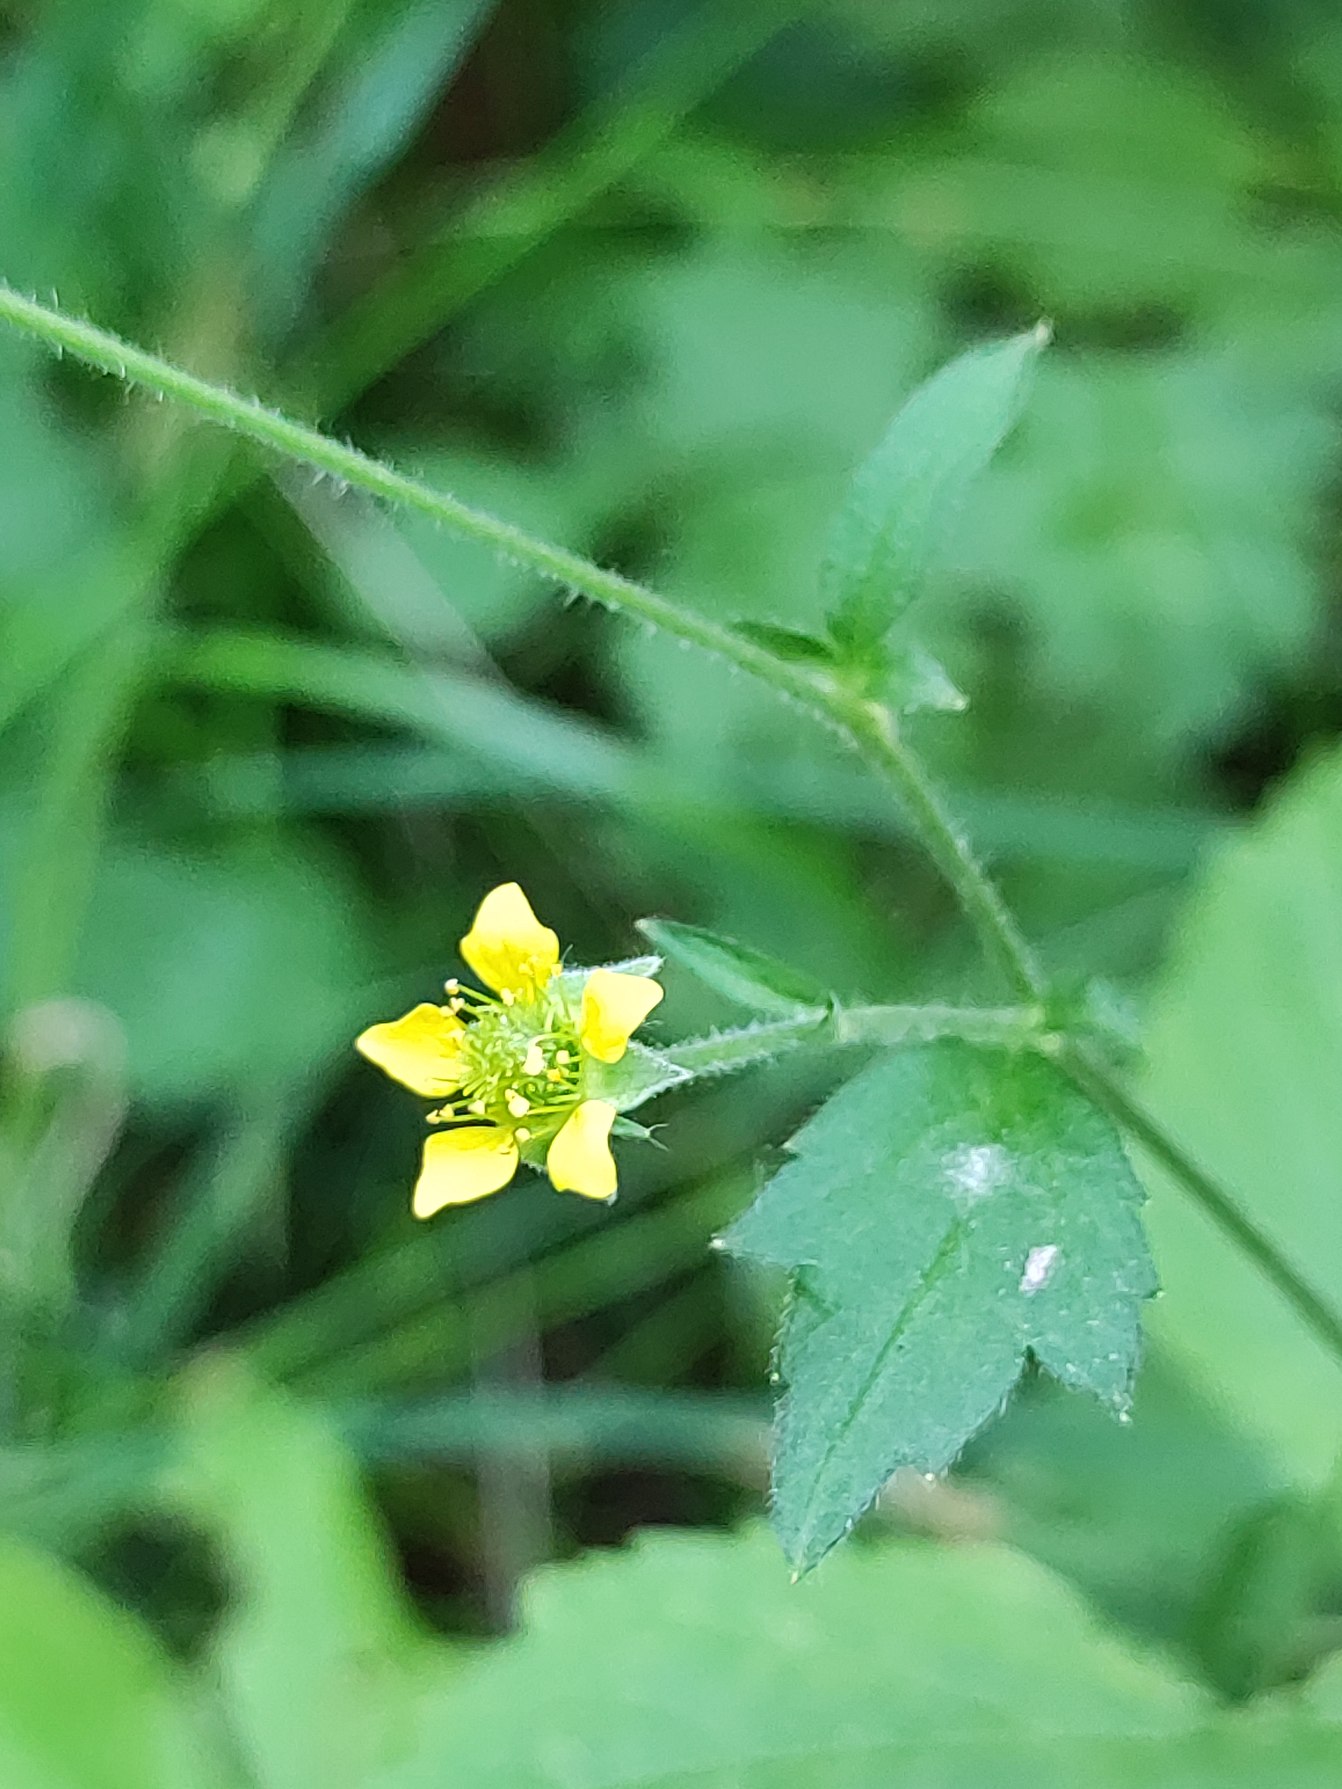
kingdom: Plantae
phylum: Tracheophyta
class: Magnoliopsida
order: Rosales
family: Rosaceae
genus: Geum
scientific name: Geum urbanum
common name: Feber-nellikerod
